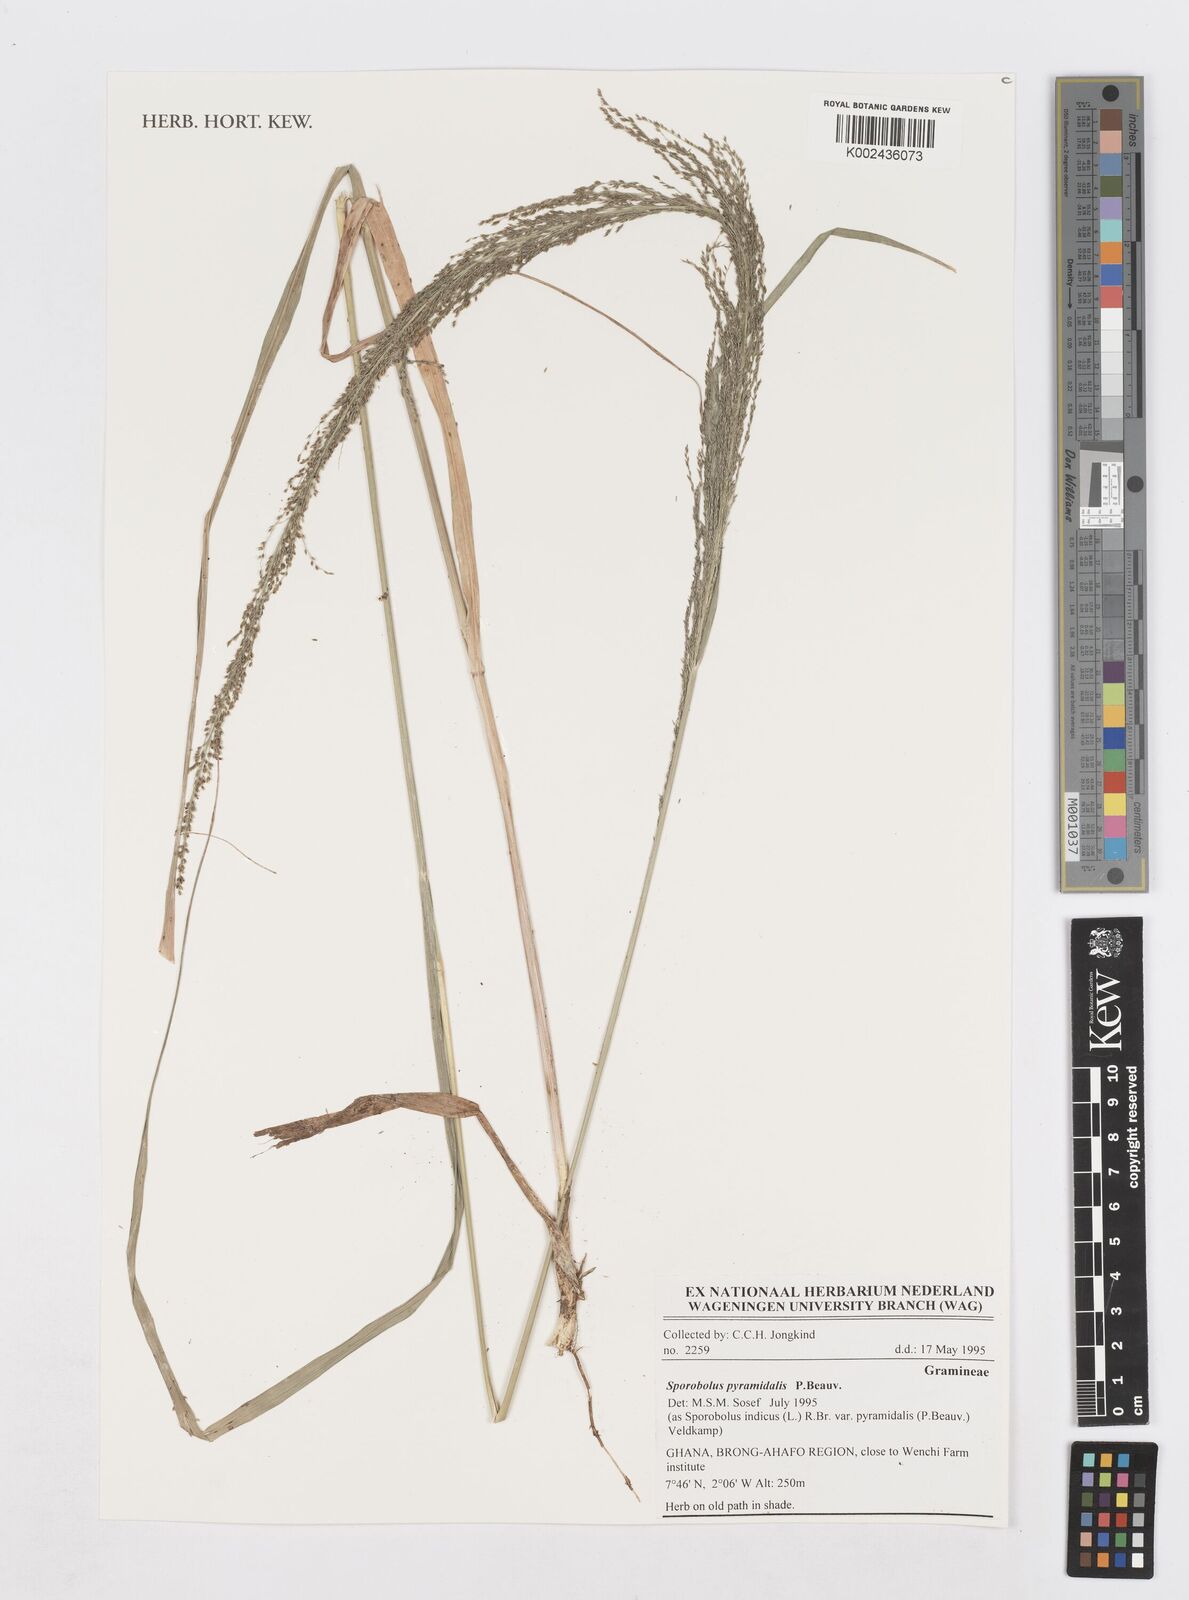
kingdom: Plantae
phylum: Tracheophyta
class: Liliopsida
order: Poales
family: Poaceae
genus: Sporobolus
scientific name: Sporobolus pyramidalis
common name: West indian dropseed
